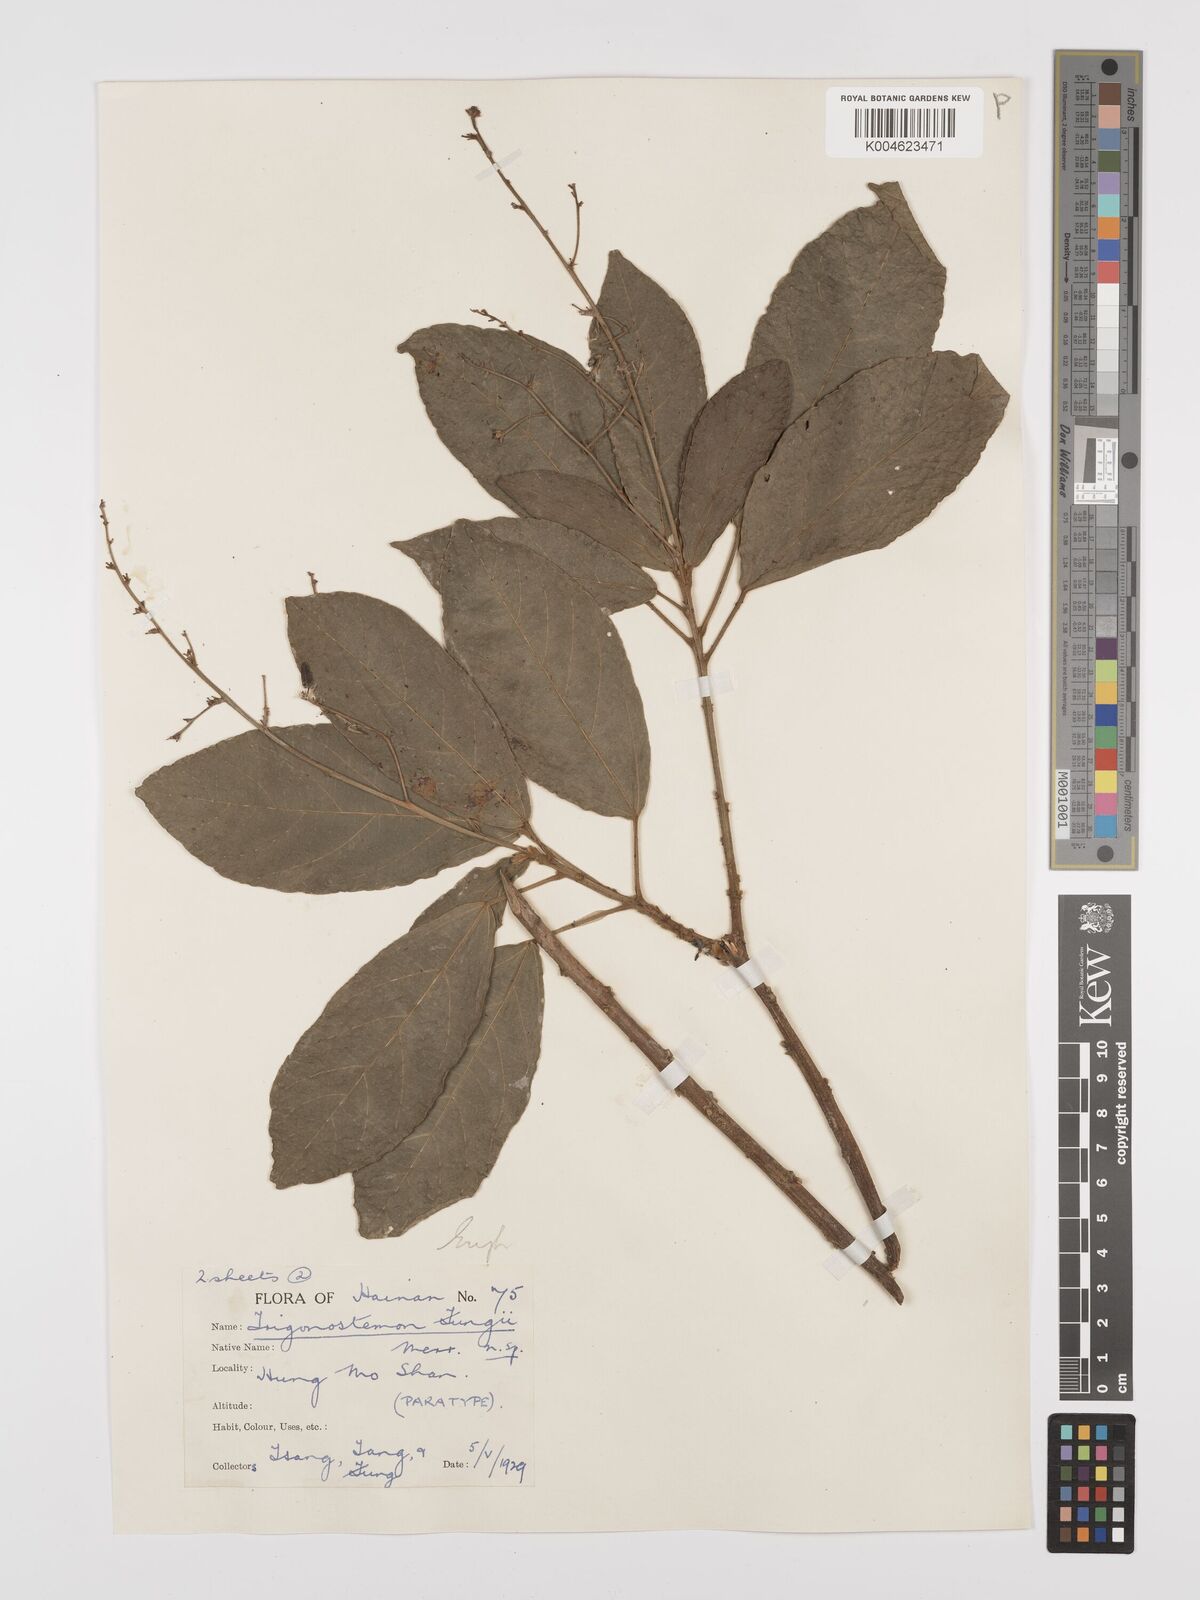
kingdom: Plantae
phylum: Tracheophyta
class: Magnoliopsida
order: Malpighiales
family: Euphorbiaceae
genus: Trigonostemon
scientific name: Trigonostemon viridissimus
